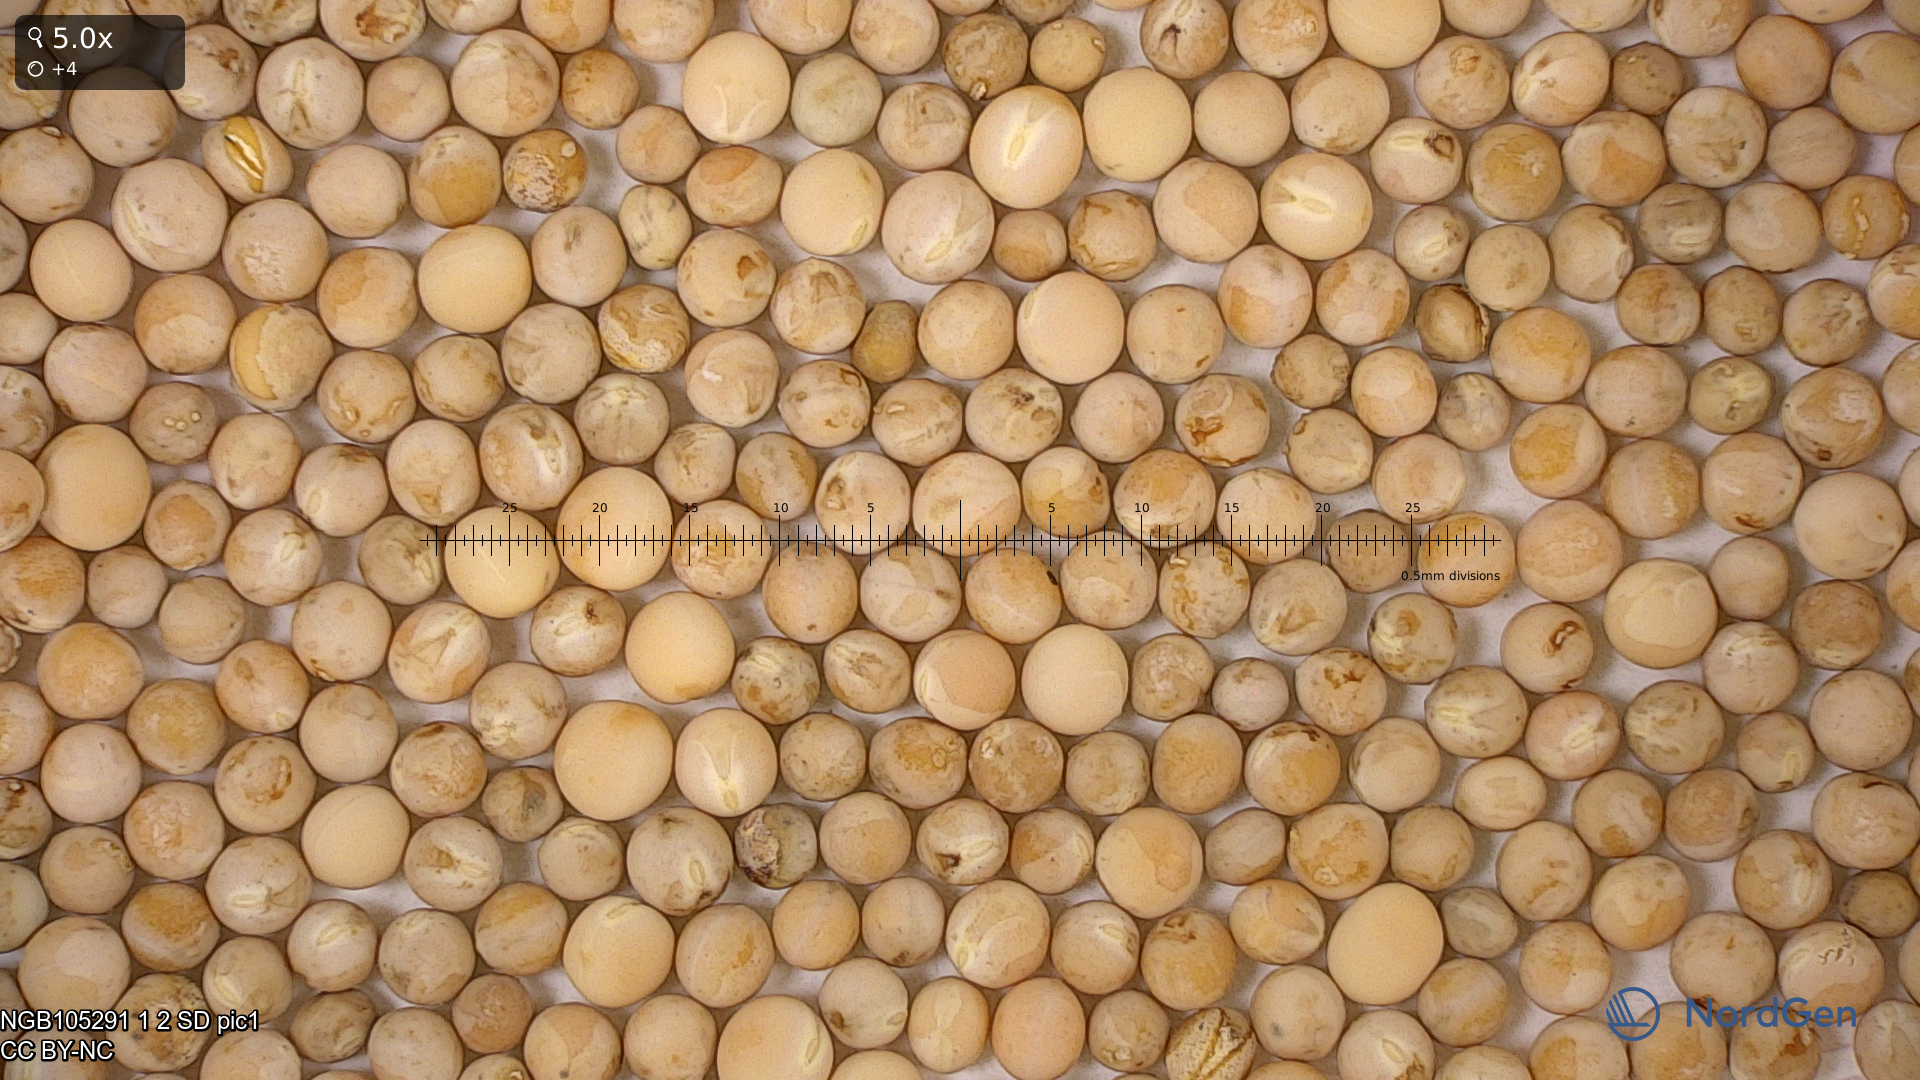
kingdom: Plantae
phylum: Tracheophyta
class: Magnoliopsida
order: Fabales
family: Fabaceae
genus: Lathyrus
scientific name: Lathyrus oleraceus
